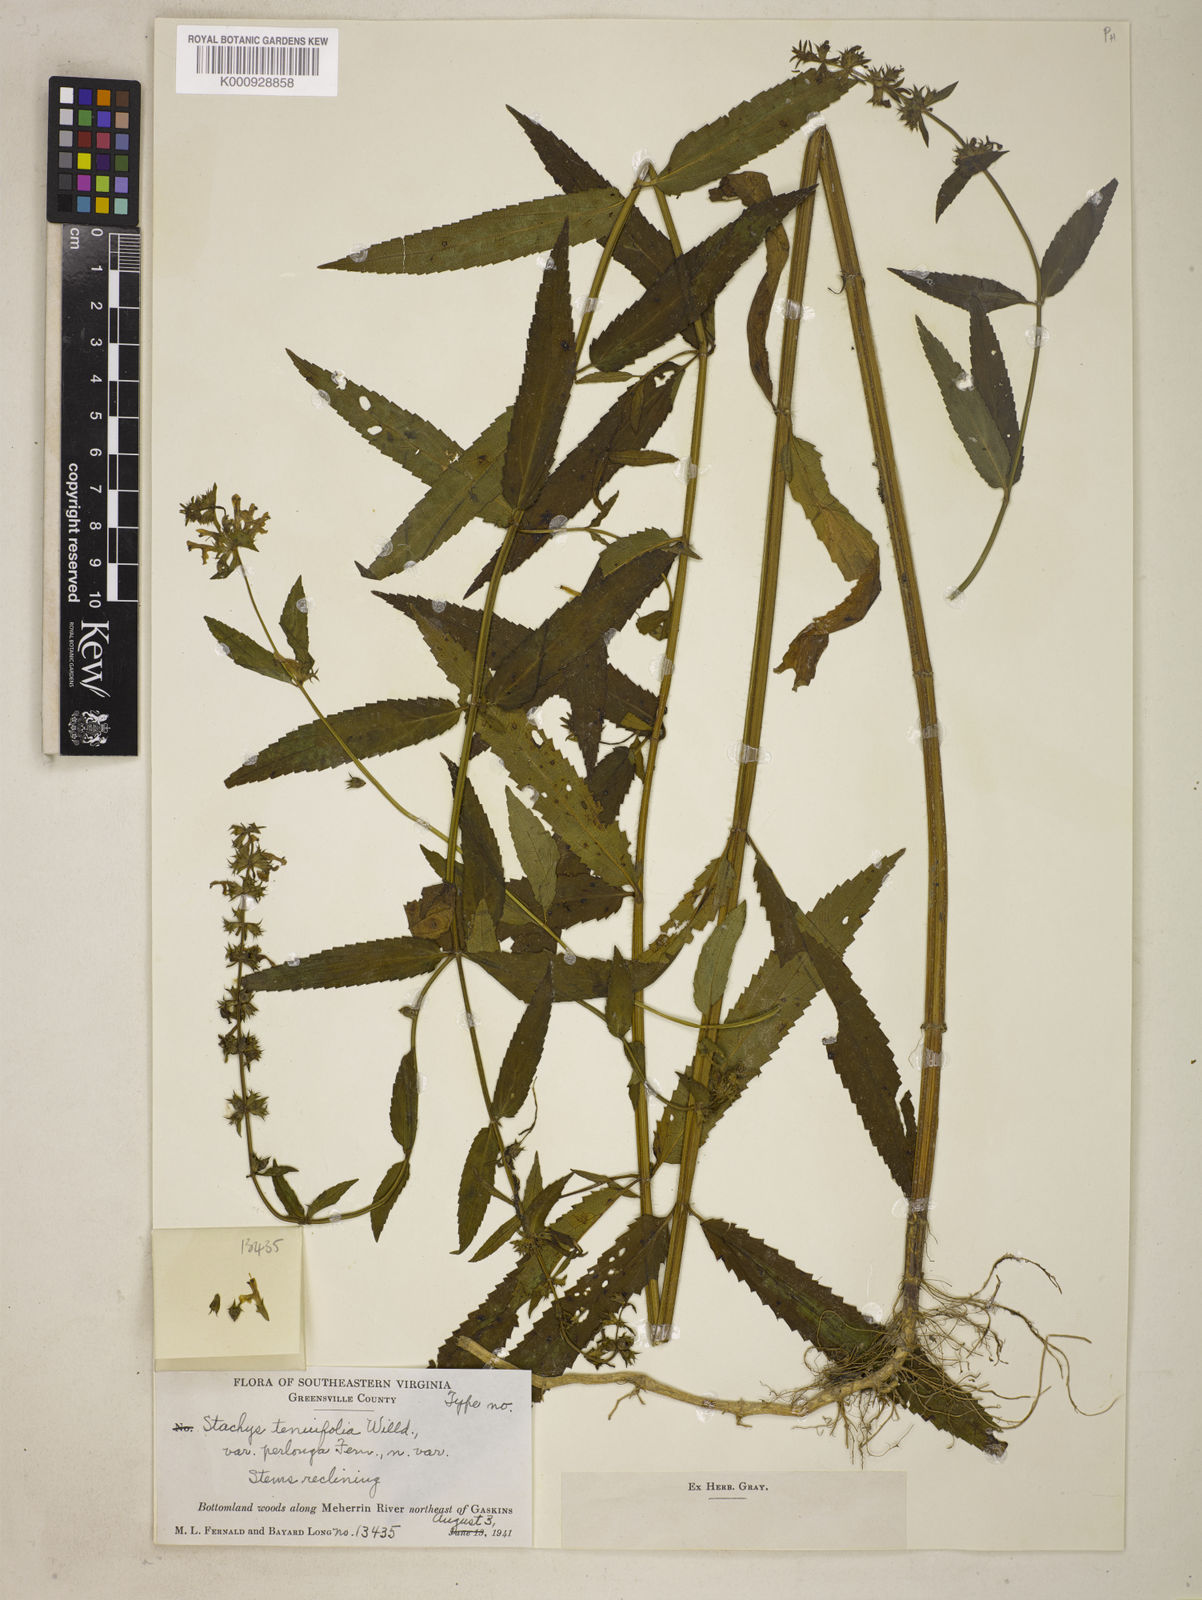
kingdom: Plantae
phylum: Tracheophyta
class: Magnoliopsida
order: Lamiales
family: Lamiaceae
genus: Stachys
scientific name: Stachys hispida
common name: Hispid hedge-nettle
